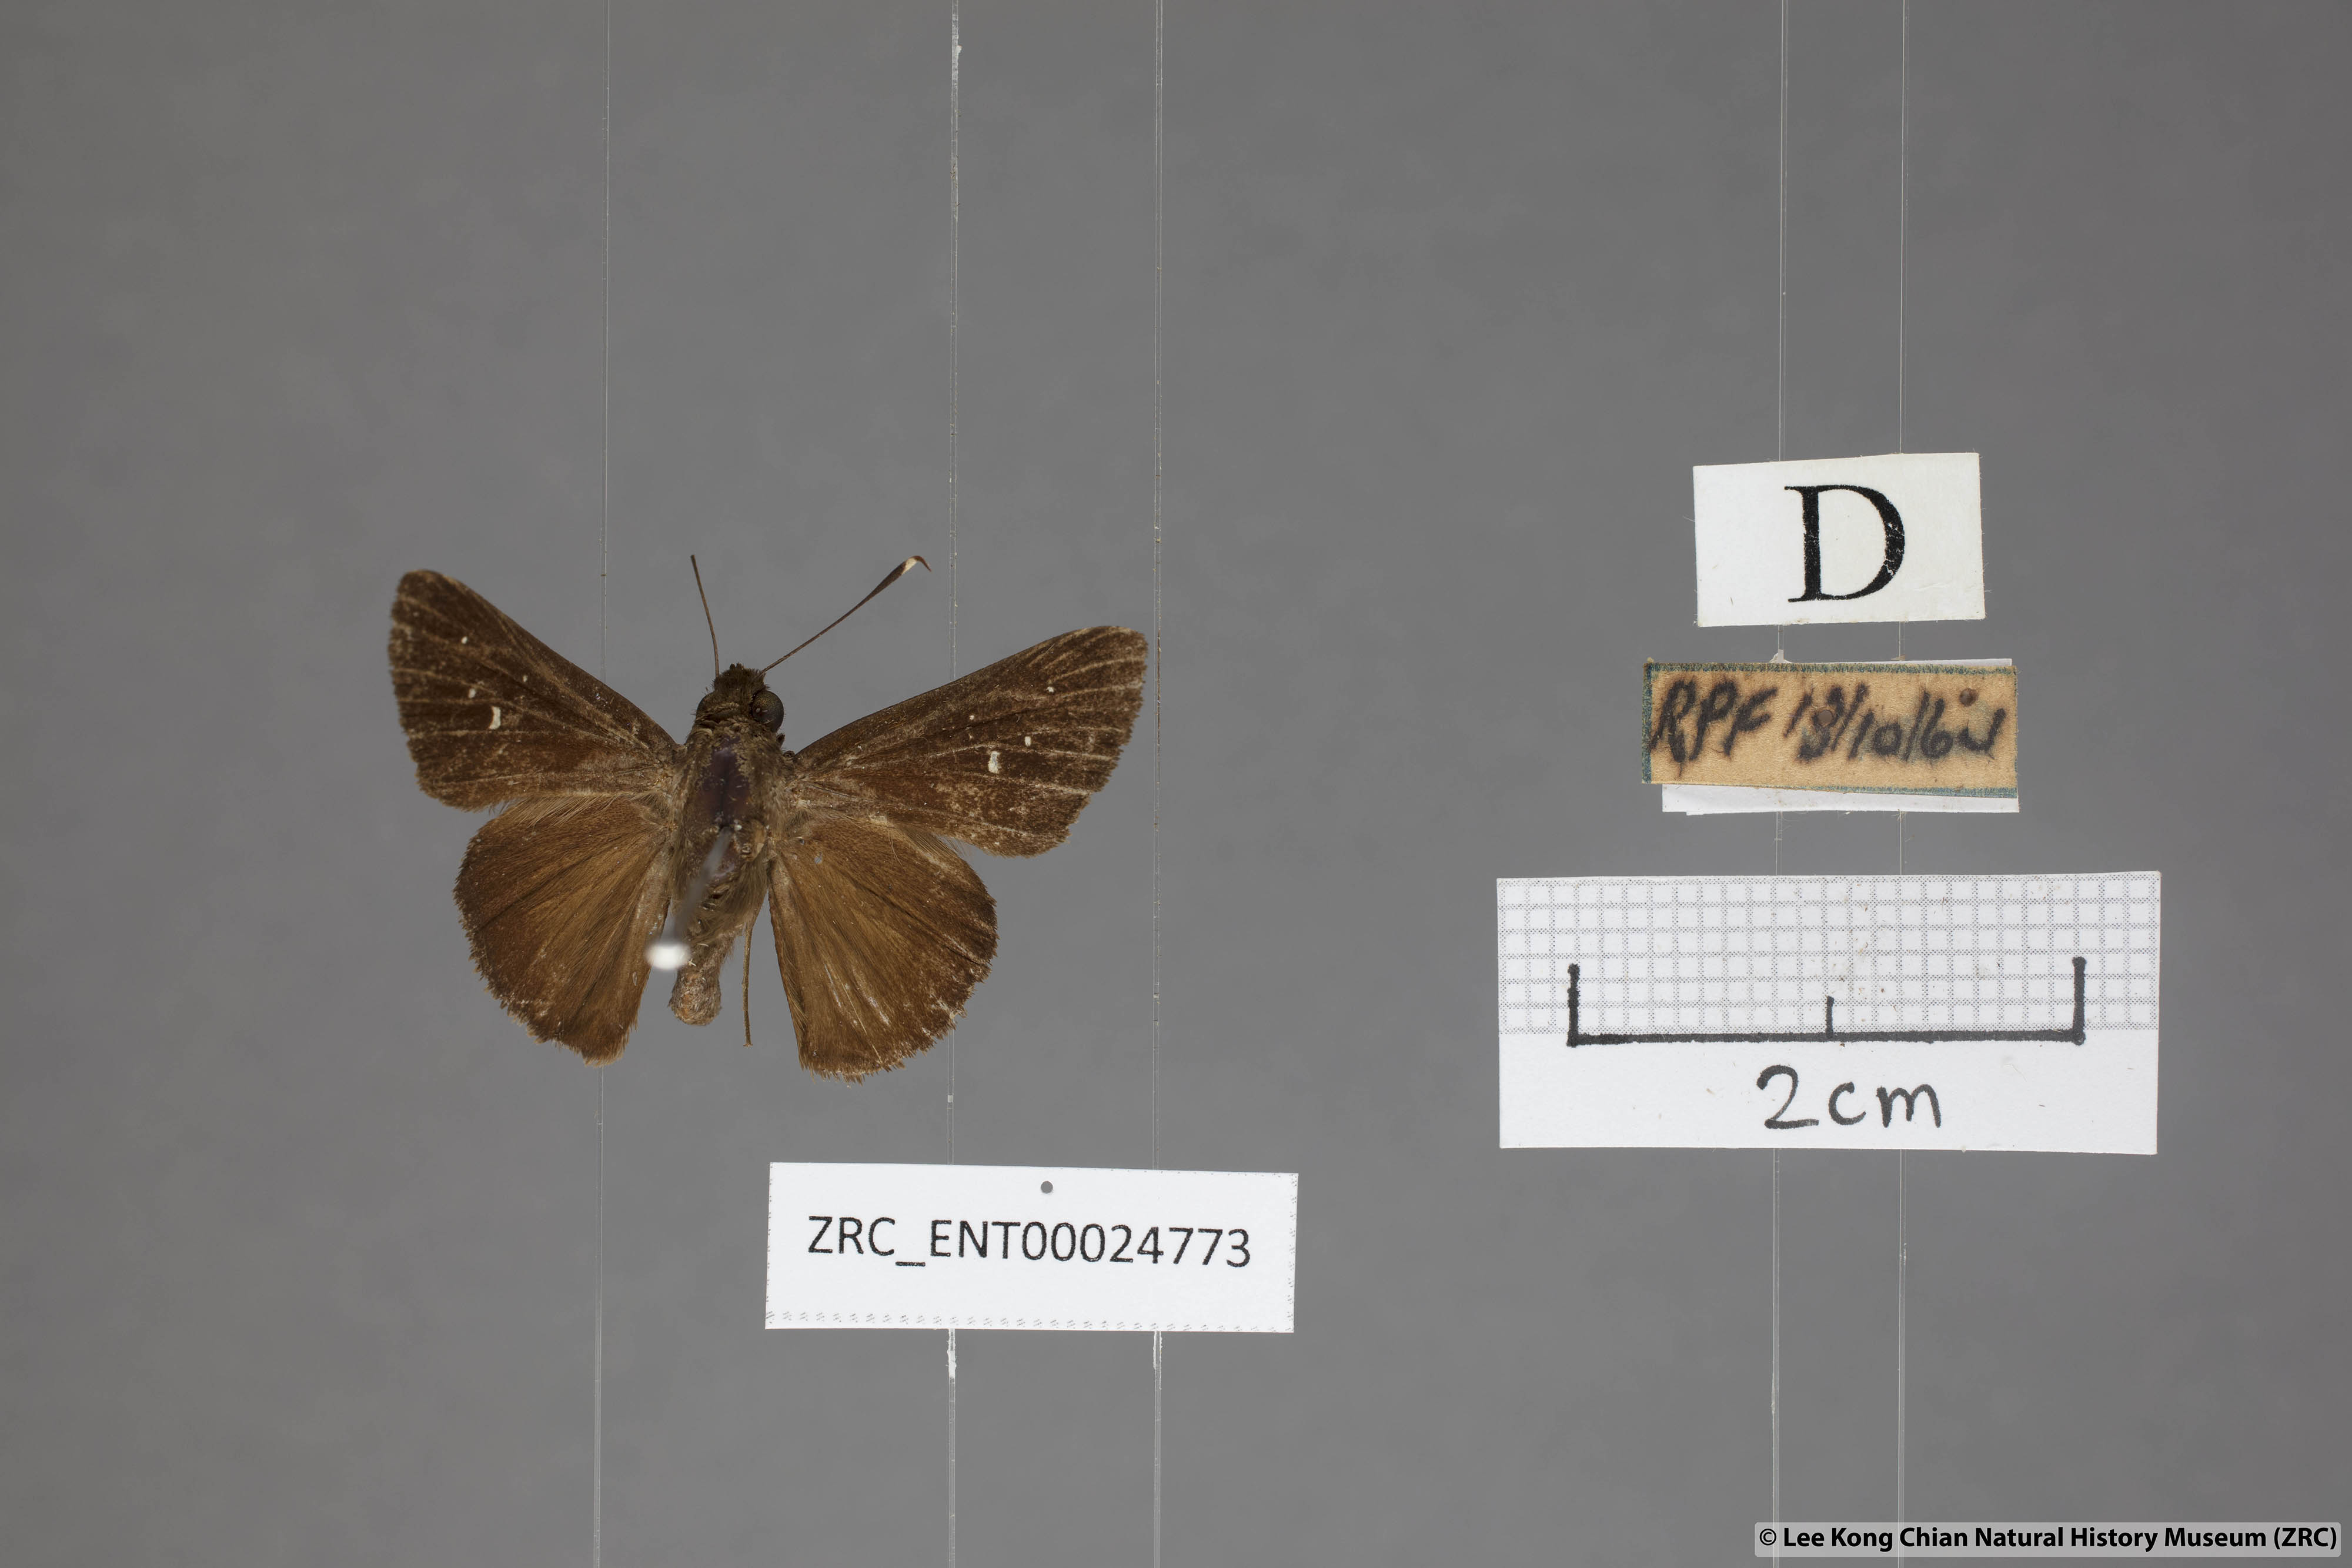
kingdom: Animalia
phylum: Arthropoda
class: Insecta
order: Lepidoptera
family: Hesperiidae
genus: Hyarotis
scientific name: Hyarotis microstictum
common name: Small brush flitter
